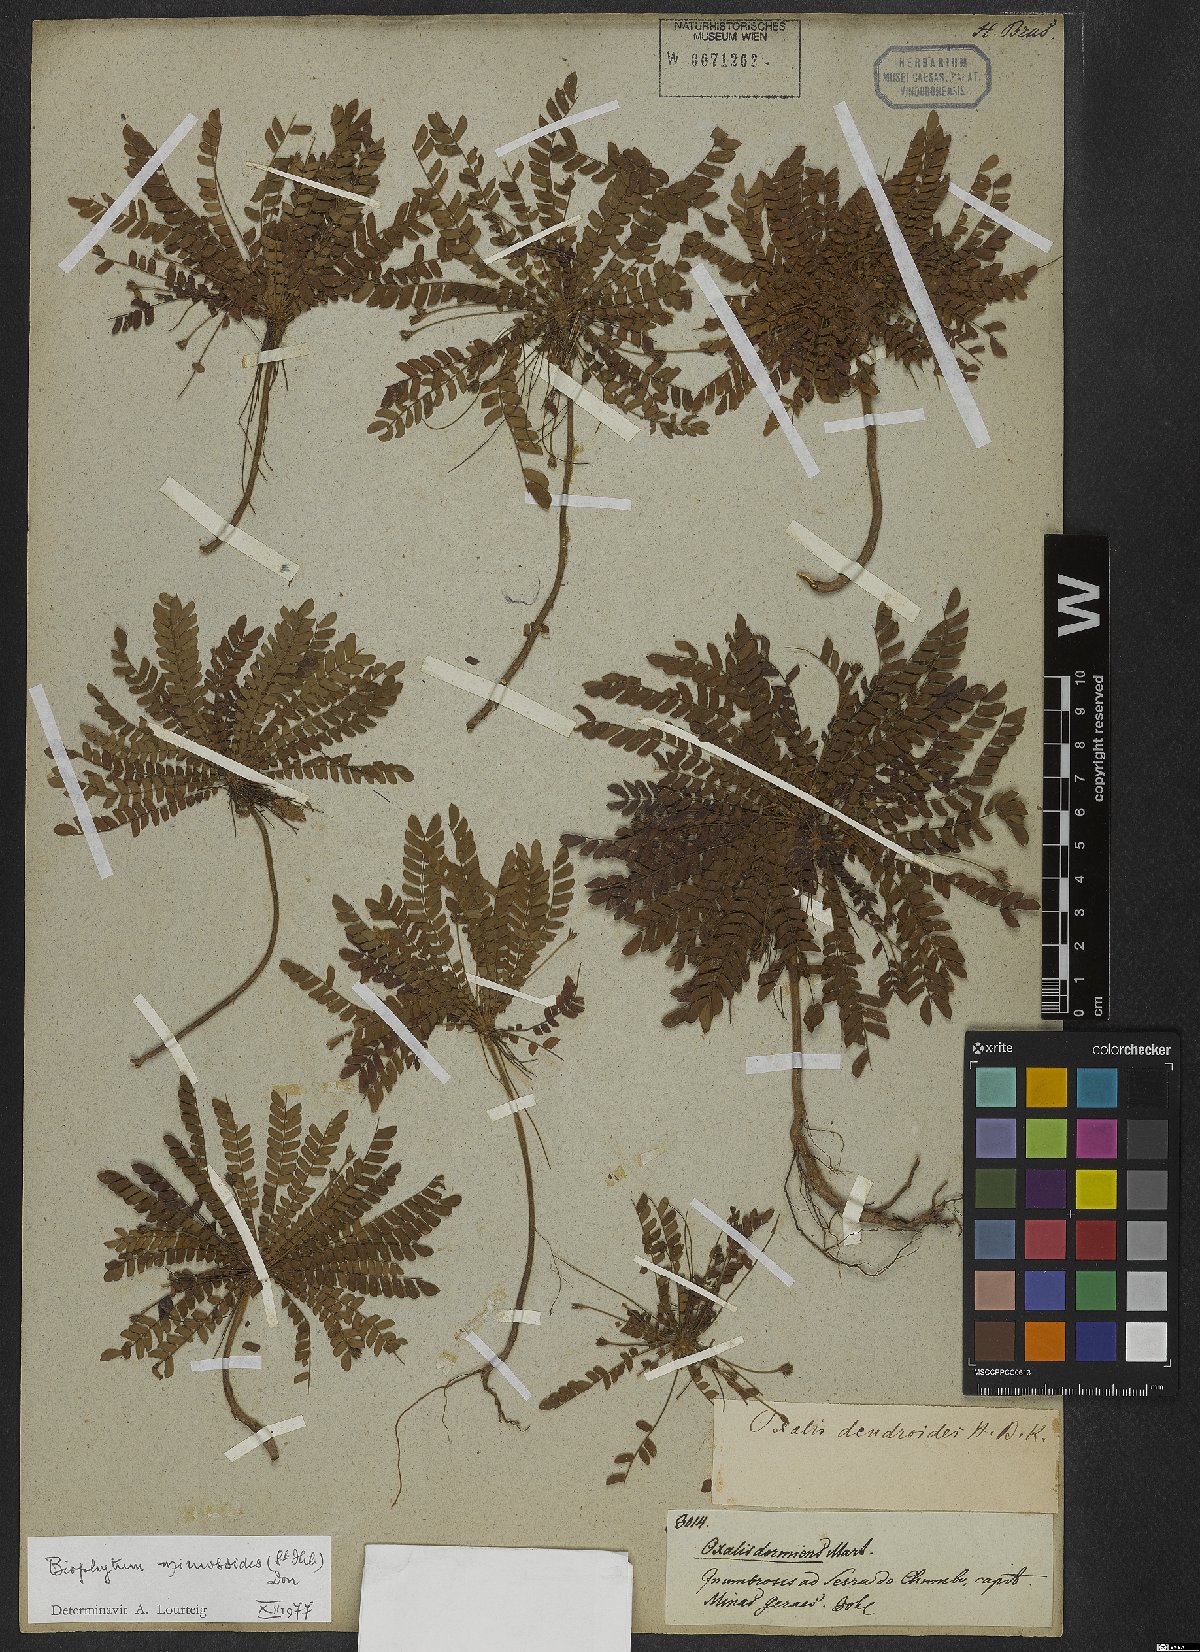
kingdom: Plantae
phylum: Tracheophyta
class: Magnoliopsida
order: Oxalidales
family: Oxalidaceae
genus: Biophytum
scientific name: Biophytum mimosoides
